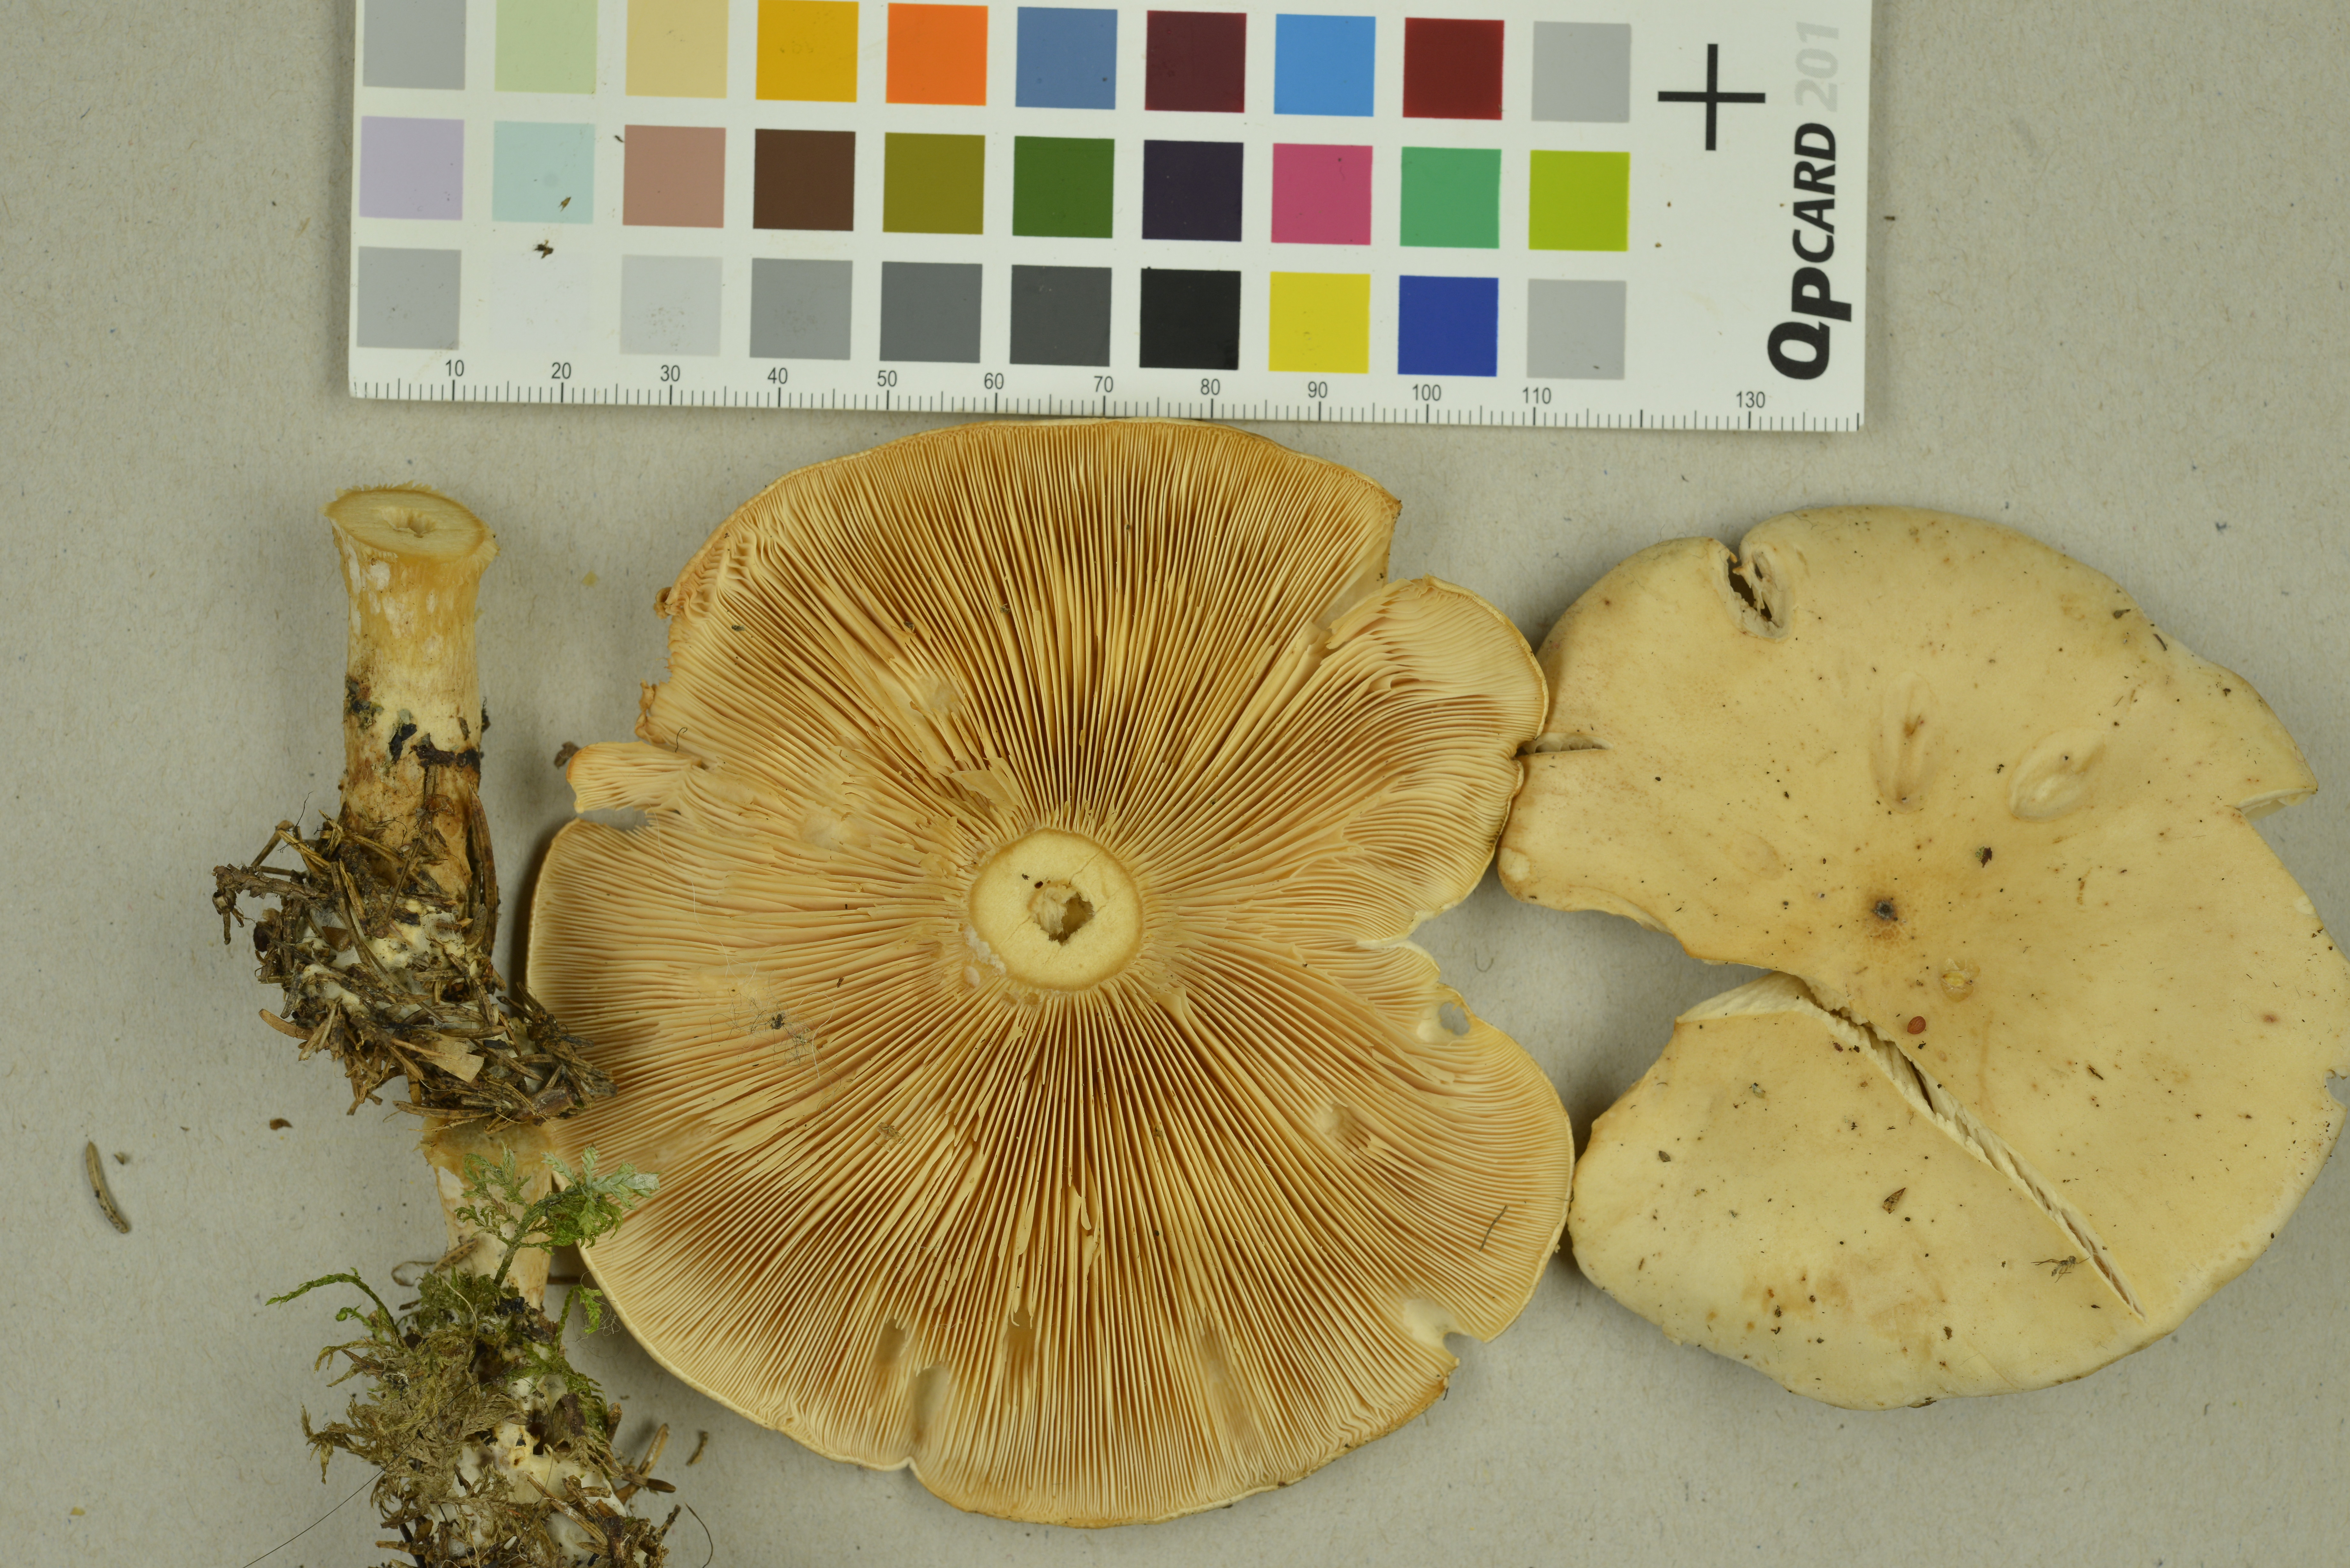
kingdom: Fungi
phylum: Basidiomycota
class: Agaricomycetes
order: Agaricales
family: Tricholomataceae
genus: Paralepista
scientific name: Paralepista gilva
